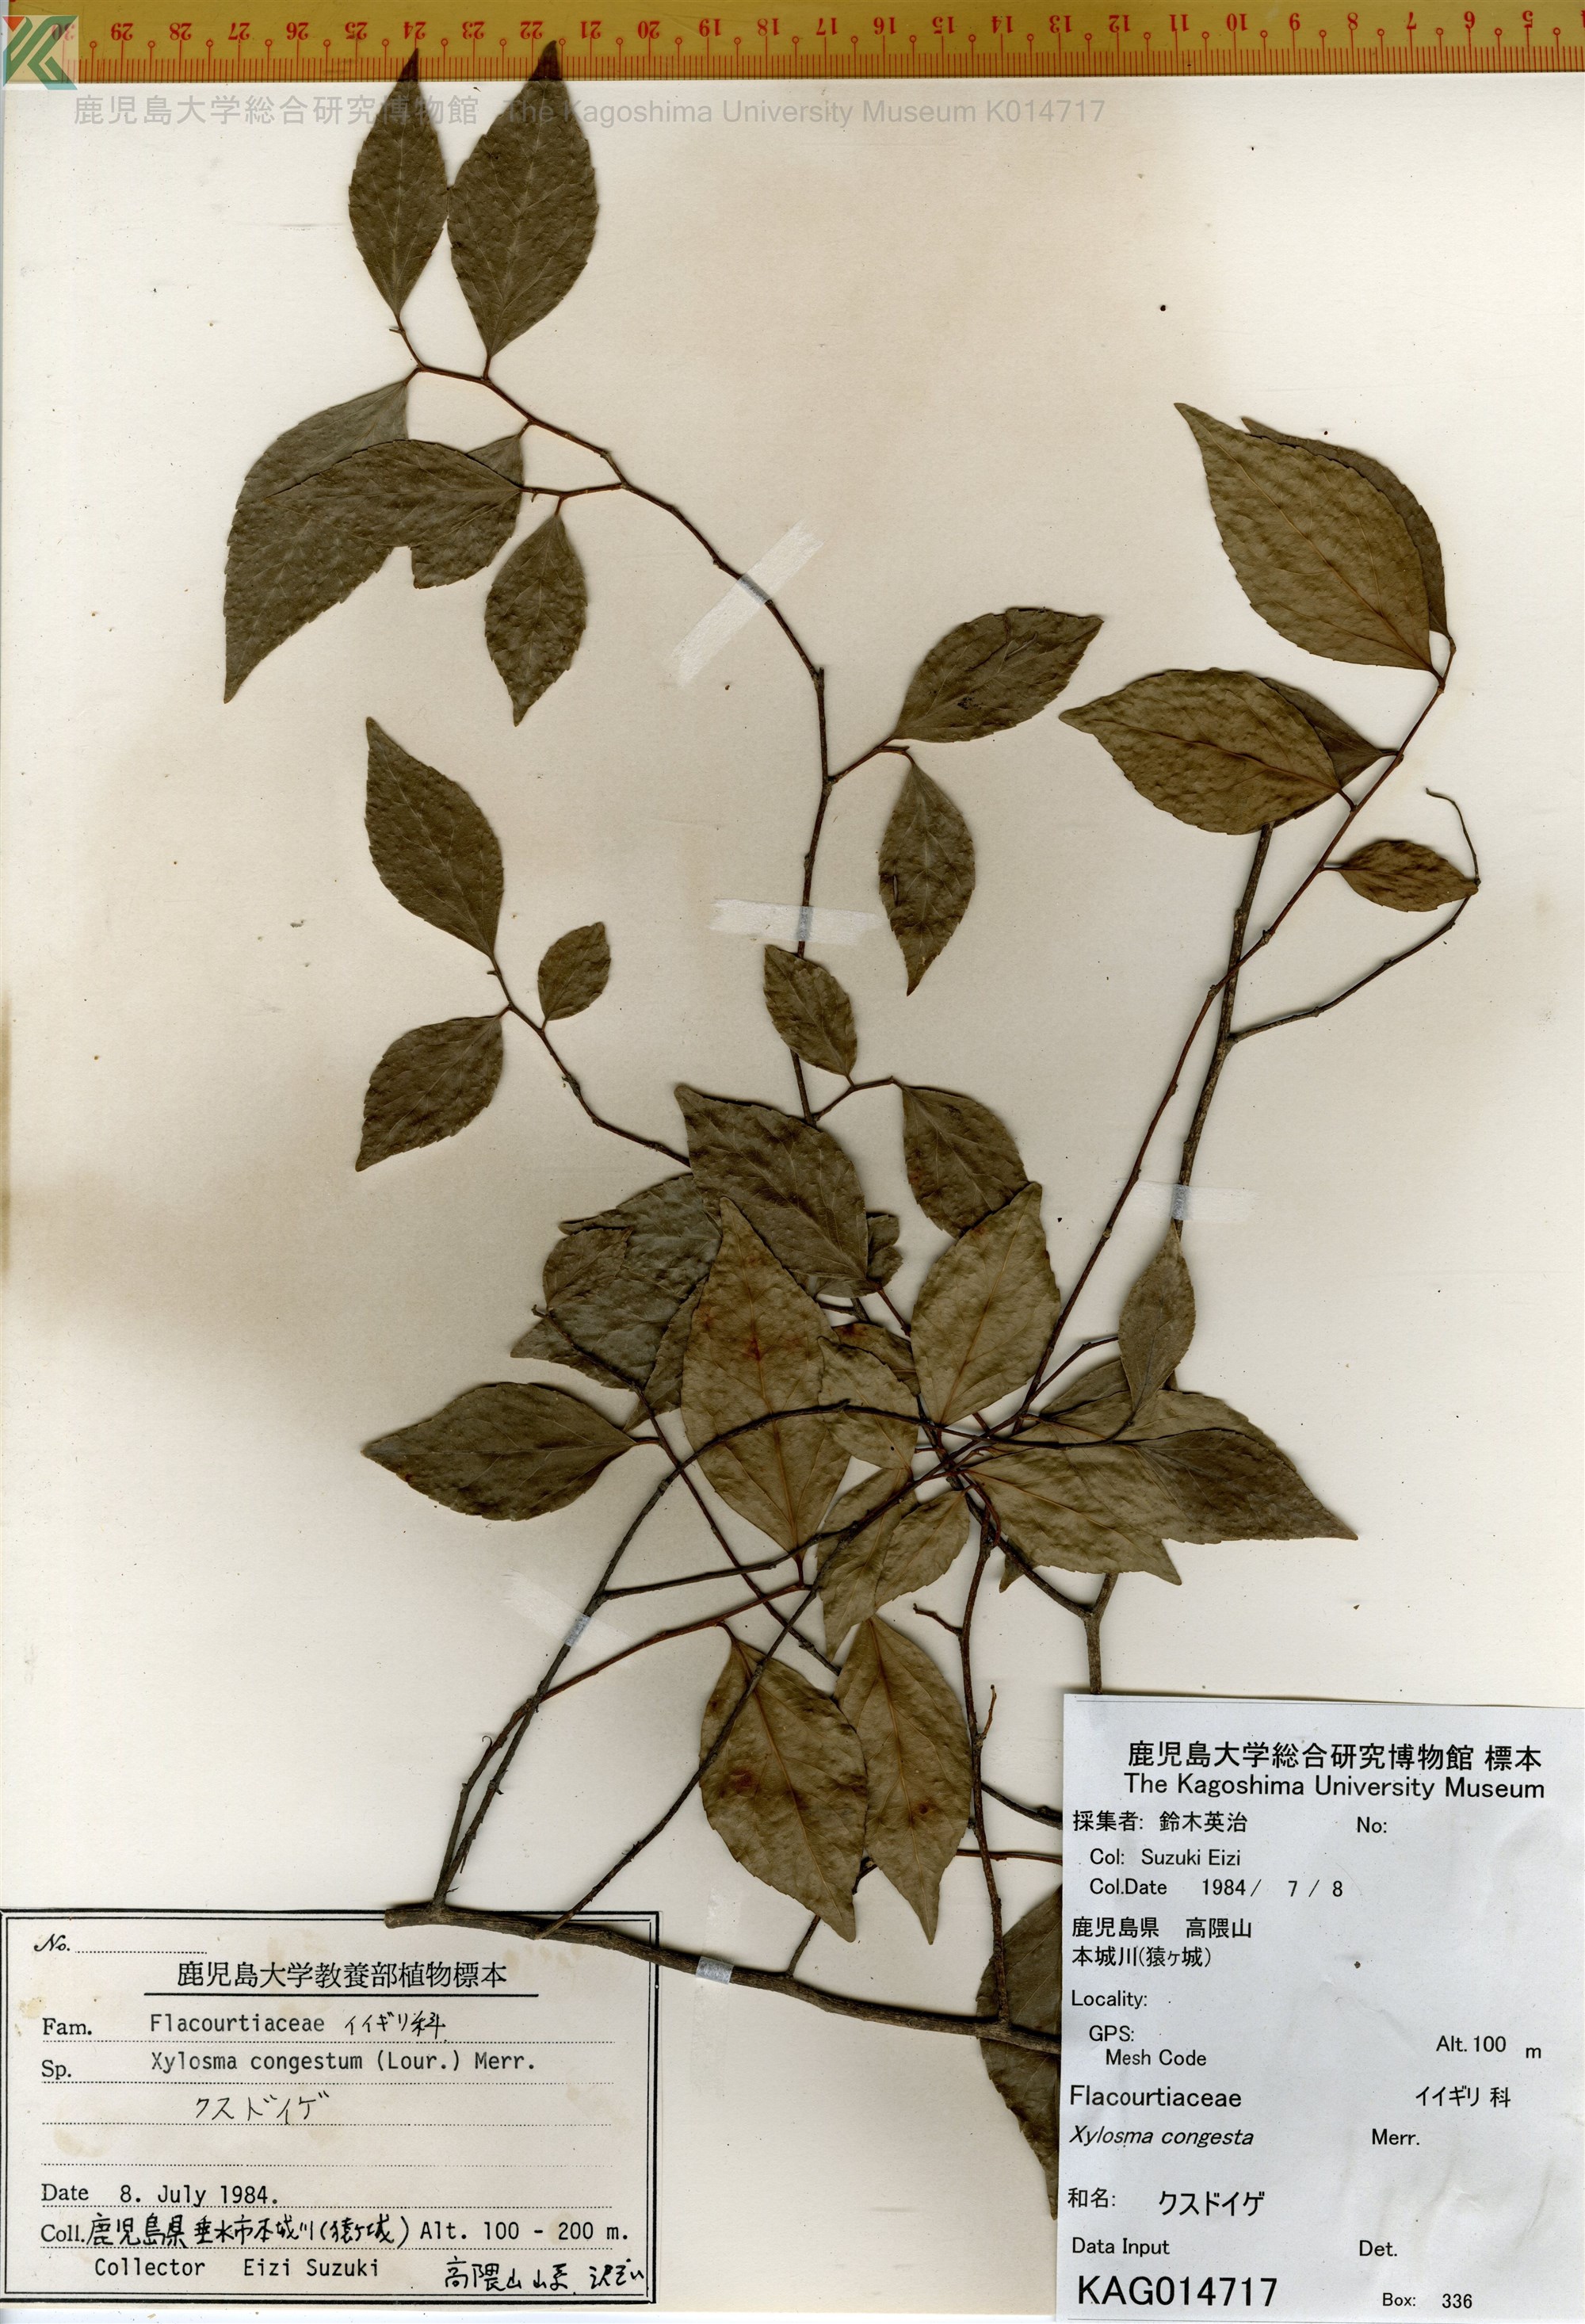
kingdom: Plantae
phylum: Tracheophyta
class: Magnoliopsida
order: Malpighiales
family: Salicaceae
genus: Xylosma
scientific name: Xylosma racemosum
